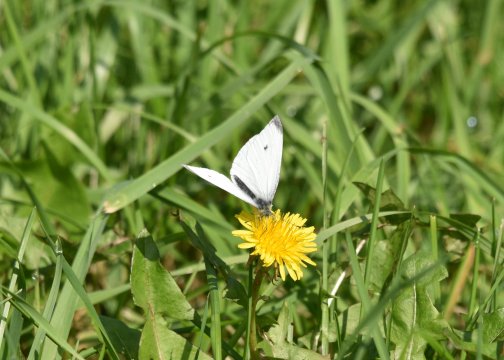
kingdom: Animalia
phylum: Arthropoda
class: Insecta
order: Lepidoptera
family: Pieridae
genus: Pieris
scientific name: Pieris rapae
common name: Cabbage White
